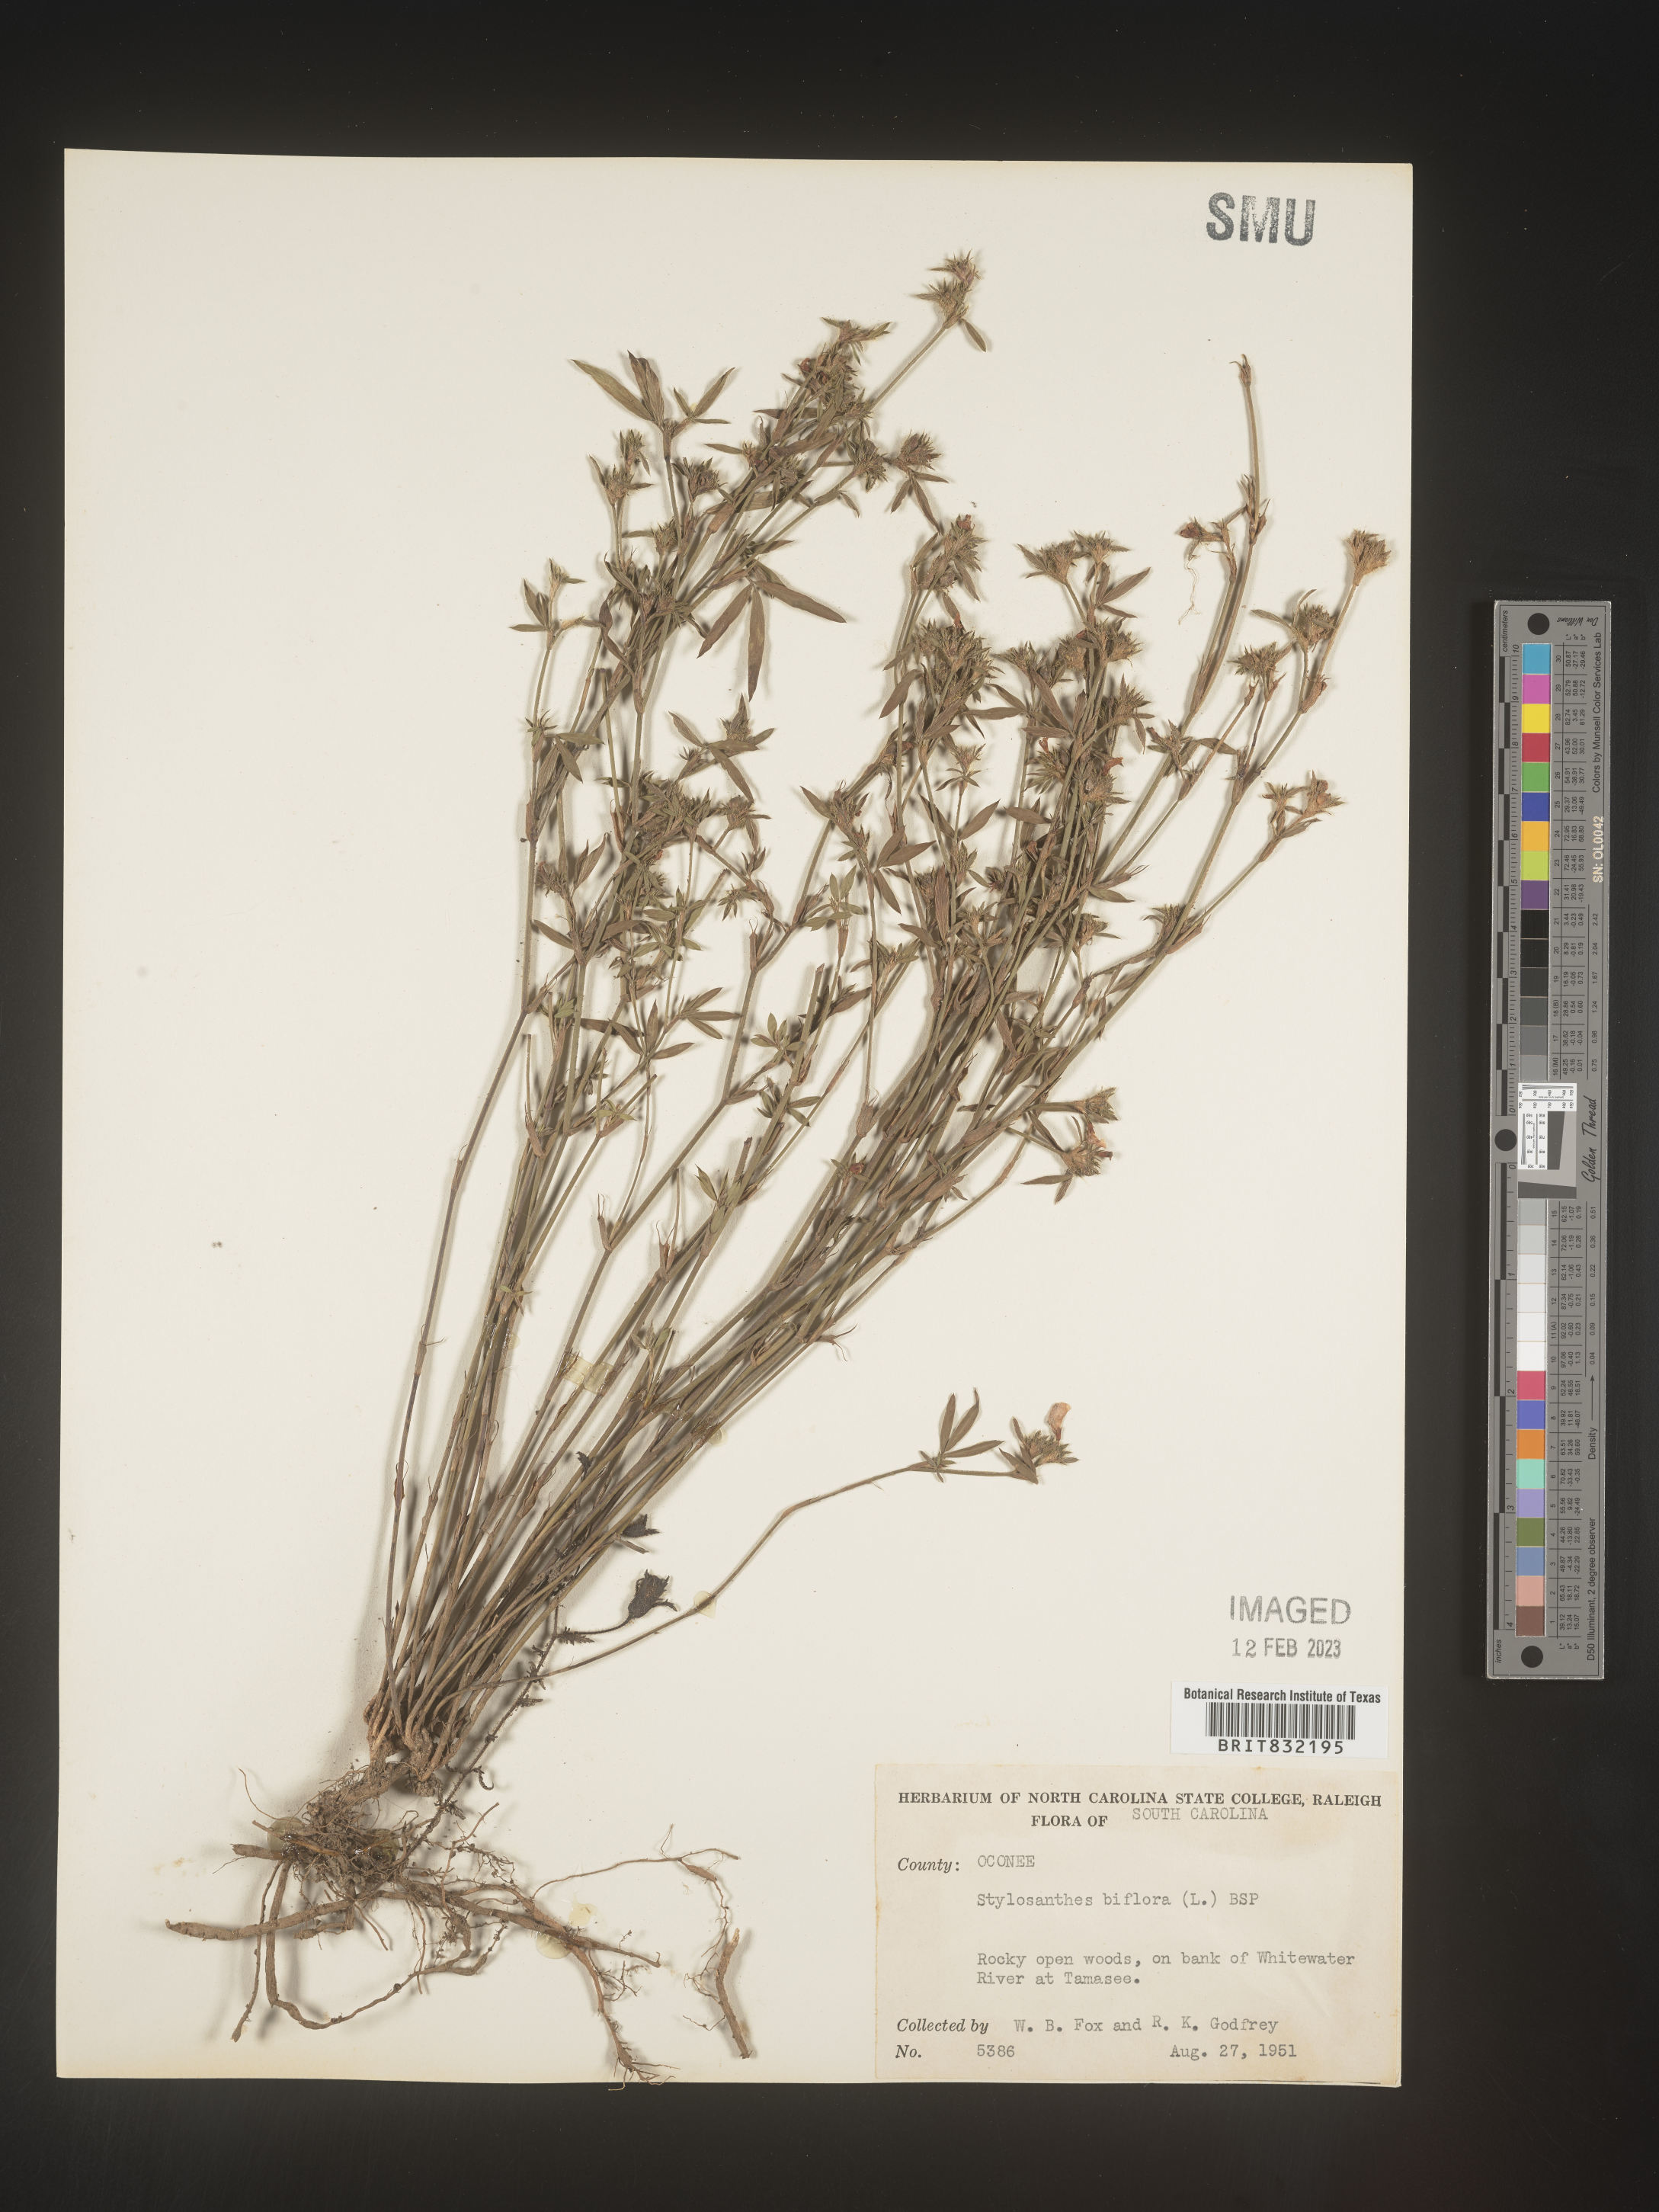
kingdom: Plantae
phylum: Tracheophyta
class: Magnoliopsida
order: Fabales
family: Fabaceae
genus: Stylosanthes
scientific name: Stylosanthes biflora
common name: Two-flower pencil-flower
